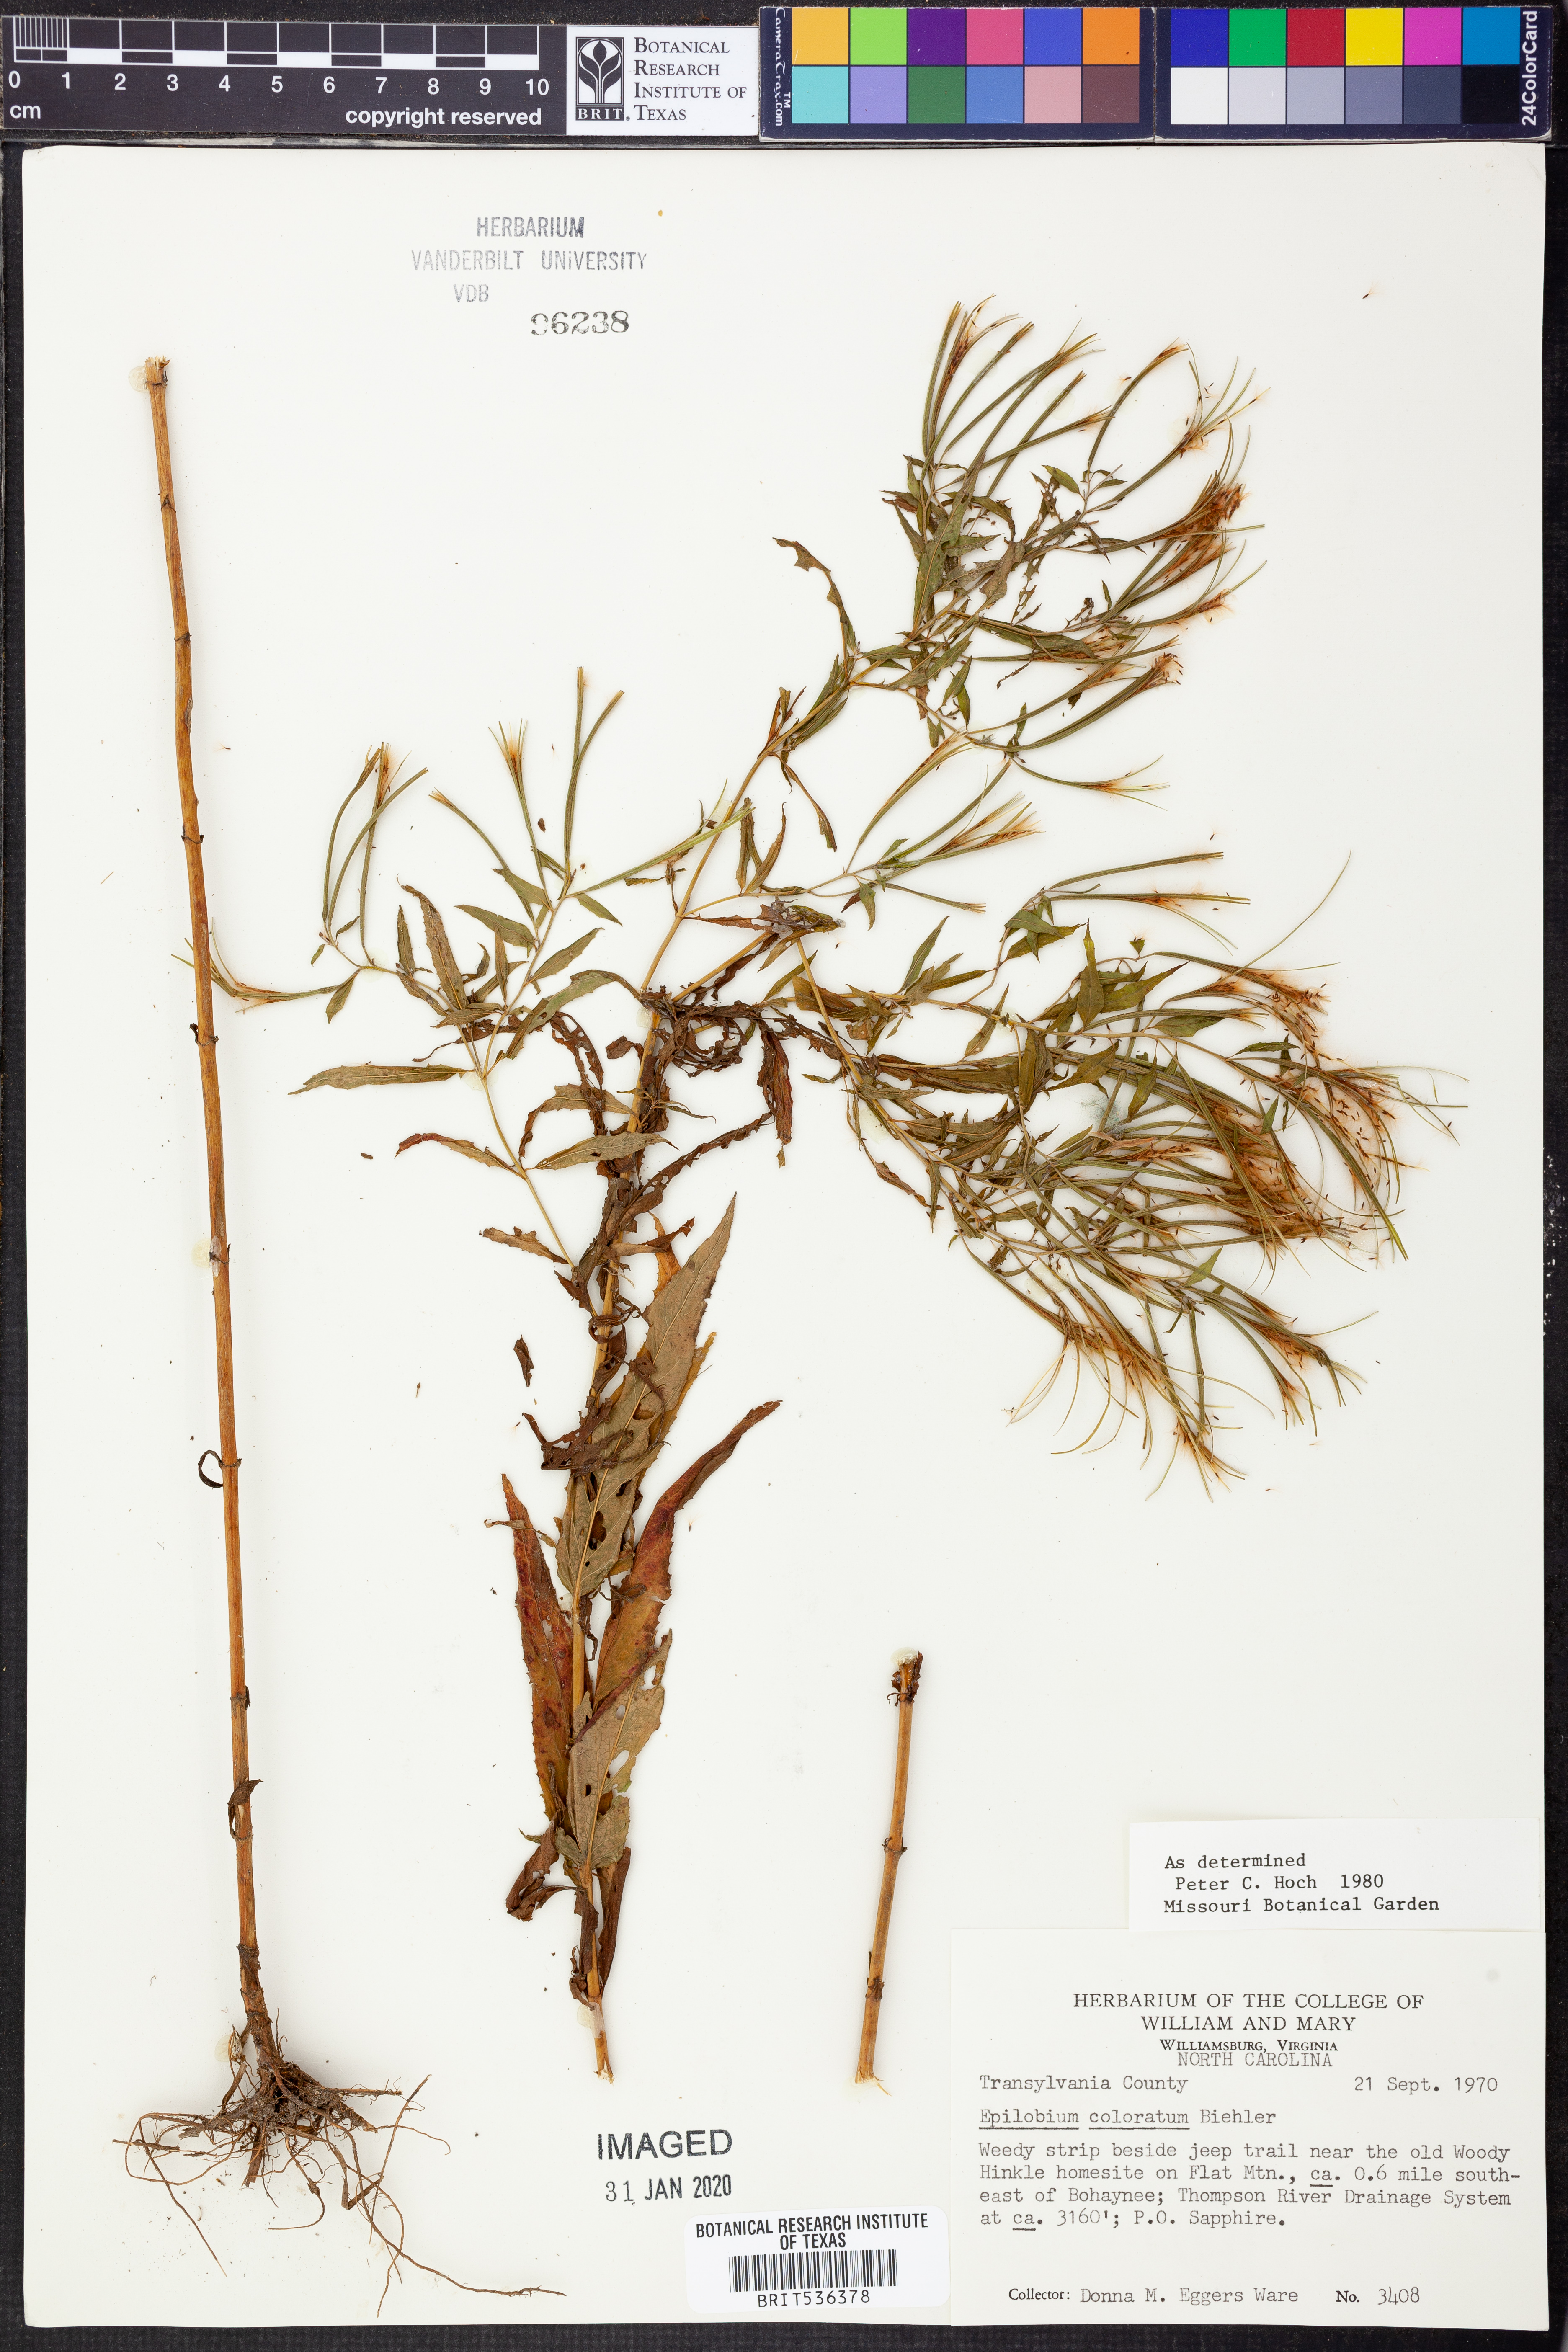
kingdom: Plantae
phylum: Tracheophyta
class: Magnoliopsida
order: Myrtales
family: Onagraceae
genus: Epilobium
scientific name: Epilobium coloratum
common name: Bronze willowherb
